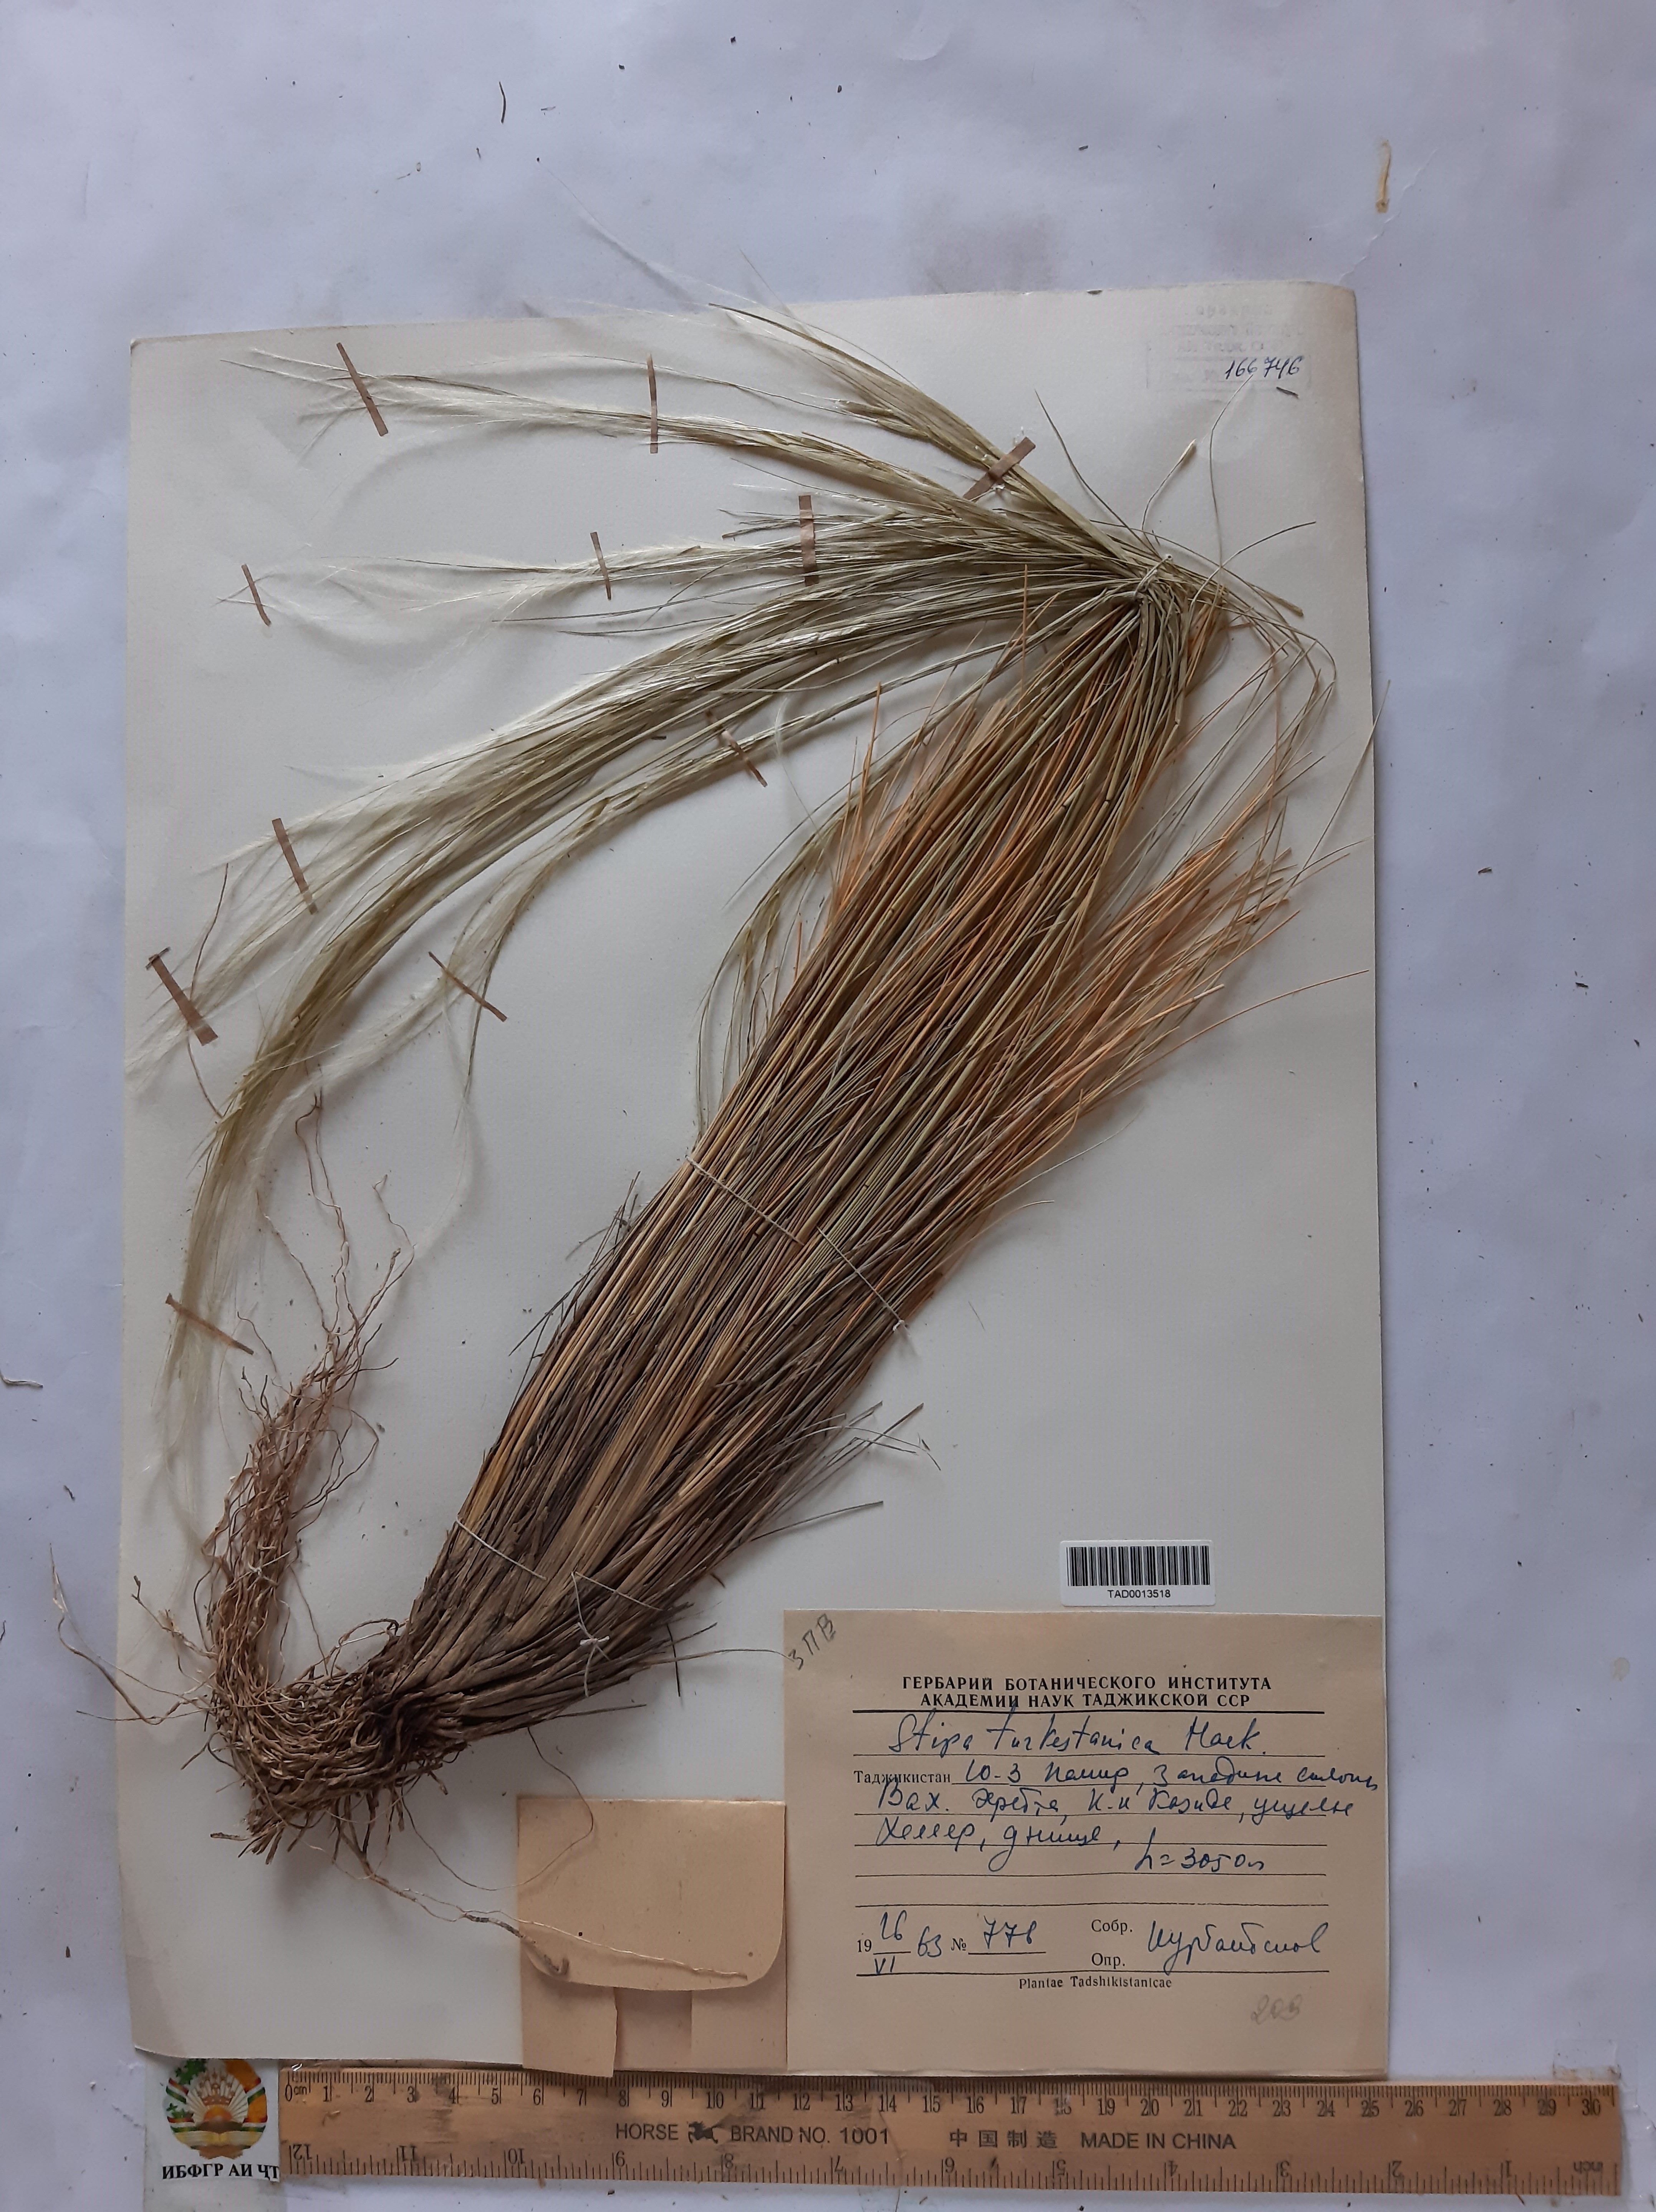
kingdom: Plantae
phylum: Tracheophyta
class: Liliopsida
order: Poales
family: Poaceae
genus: Stipa
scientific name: Stipa turkestanica
